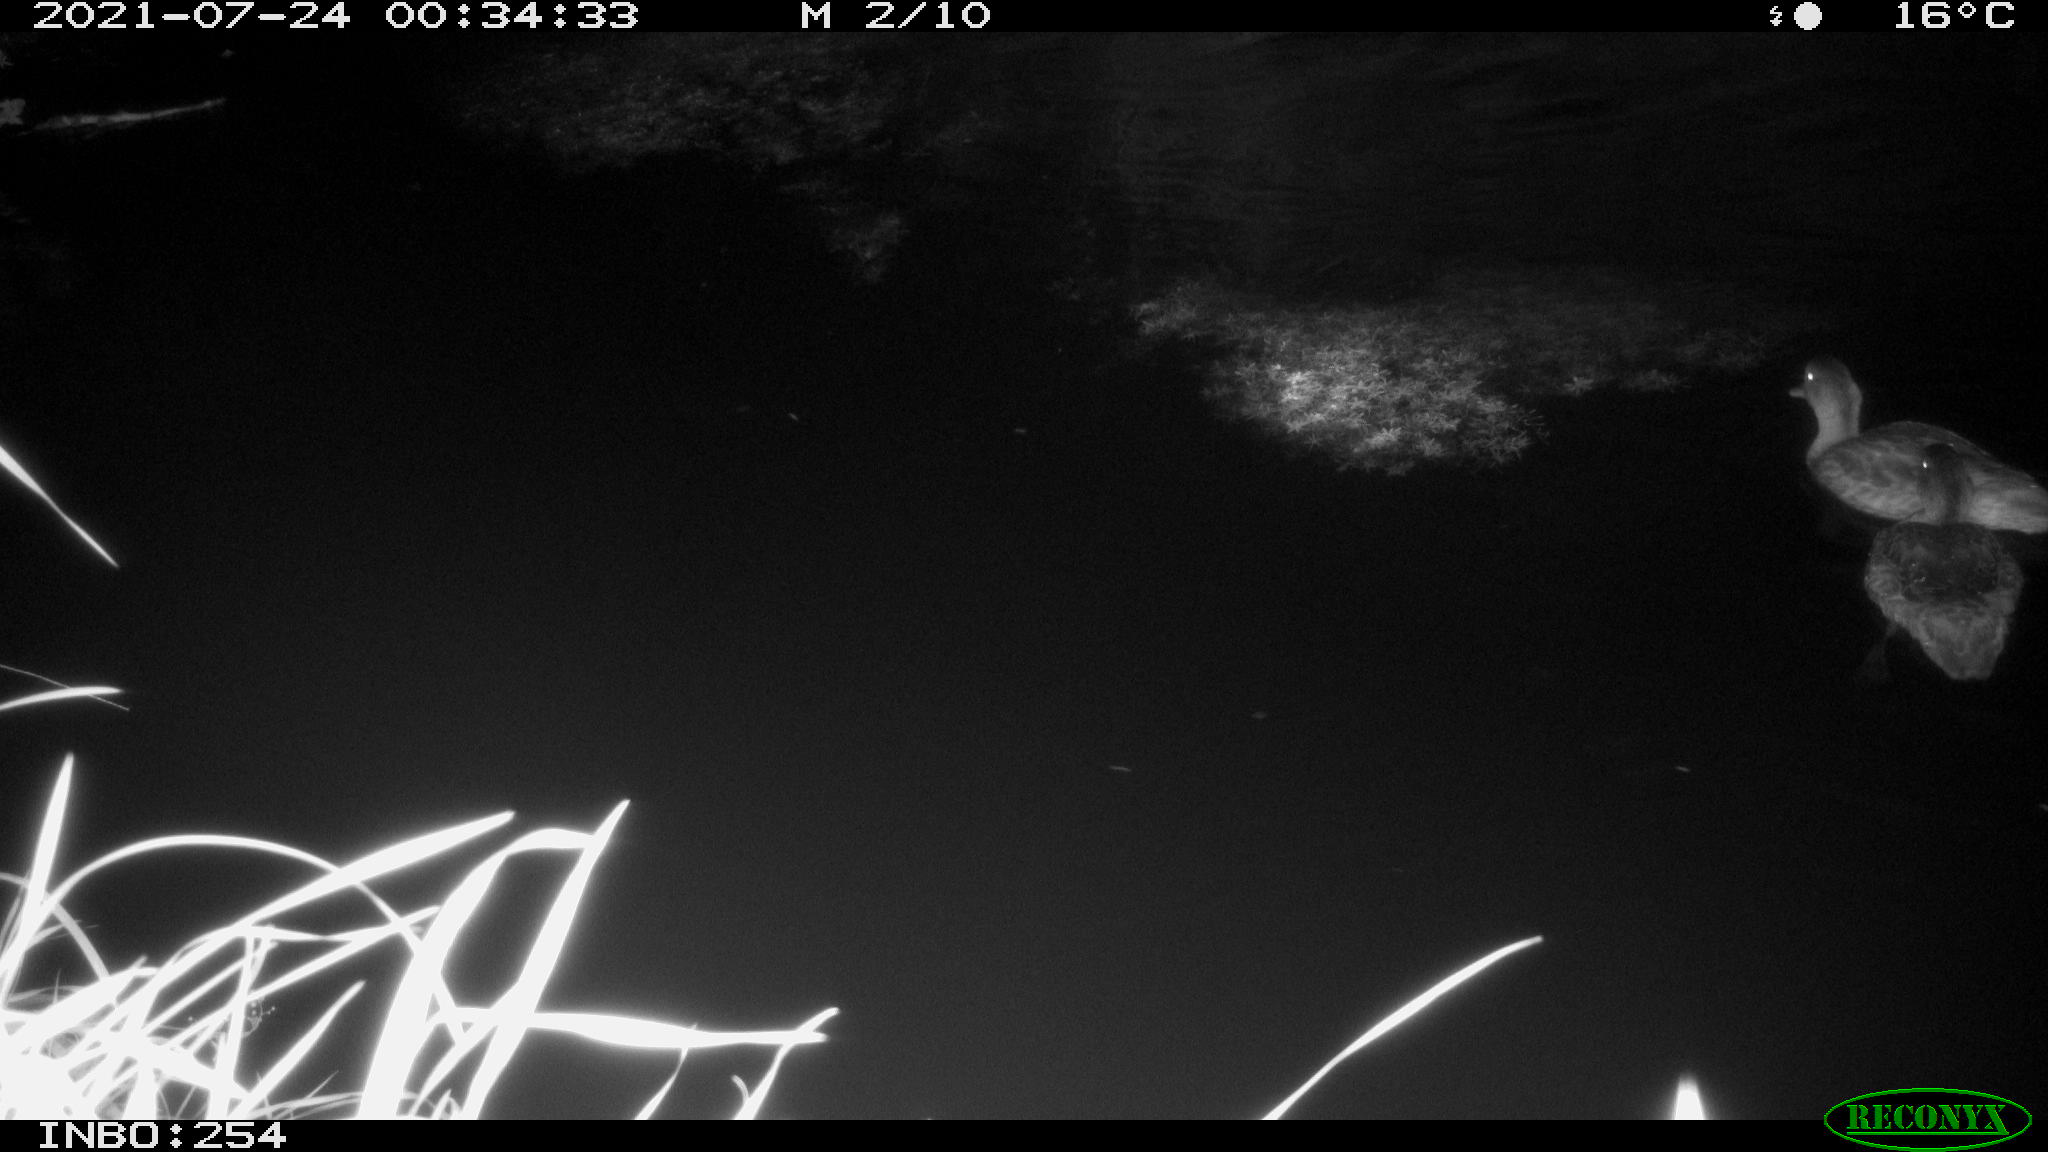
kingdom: Animalia
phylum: Chordata
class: Aves
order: Anseriformes
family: Anatidae
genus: Anas
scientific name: Anas platyrhynchos
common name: Mallard
